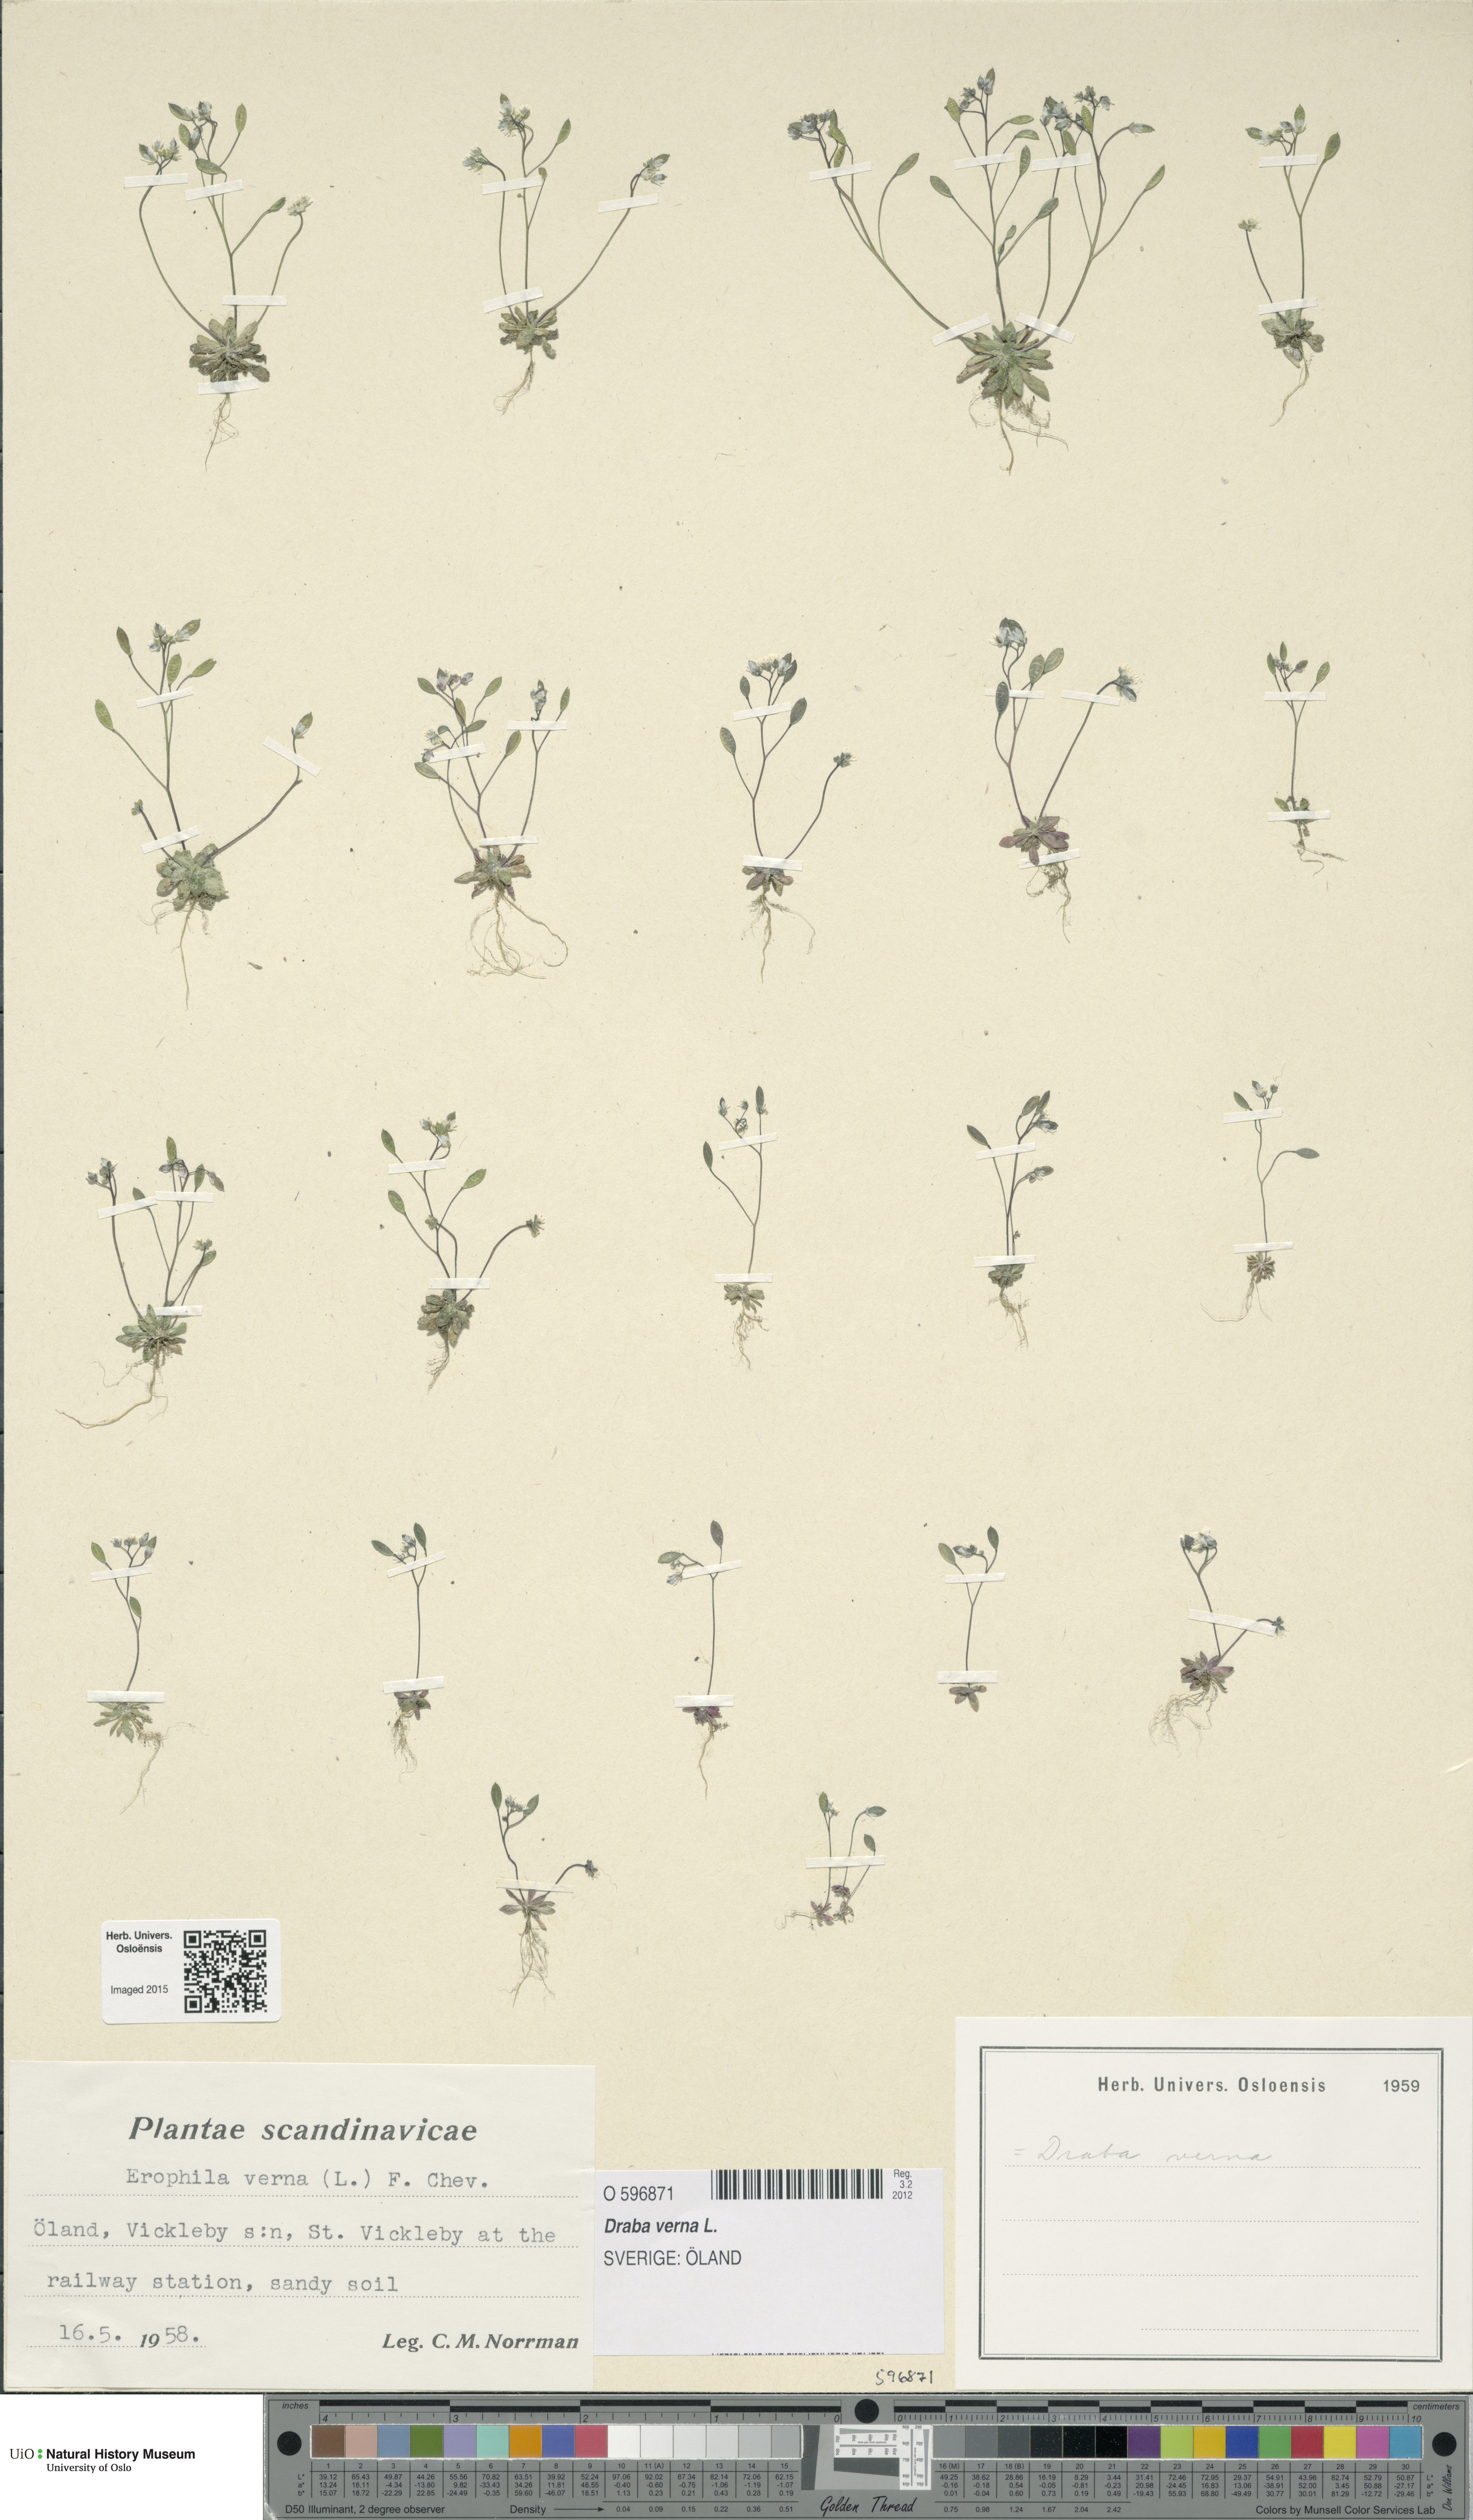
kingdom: Plantae
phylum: Tracheophyta
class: Magnoliopsida
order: Brassicales
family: Brassicaceae
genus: Draba
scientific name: Draba verna
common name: Spring draba
